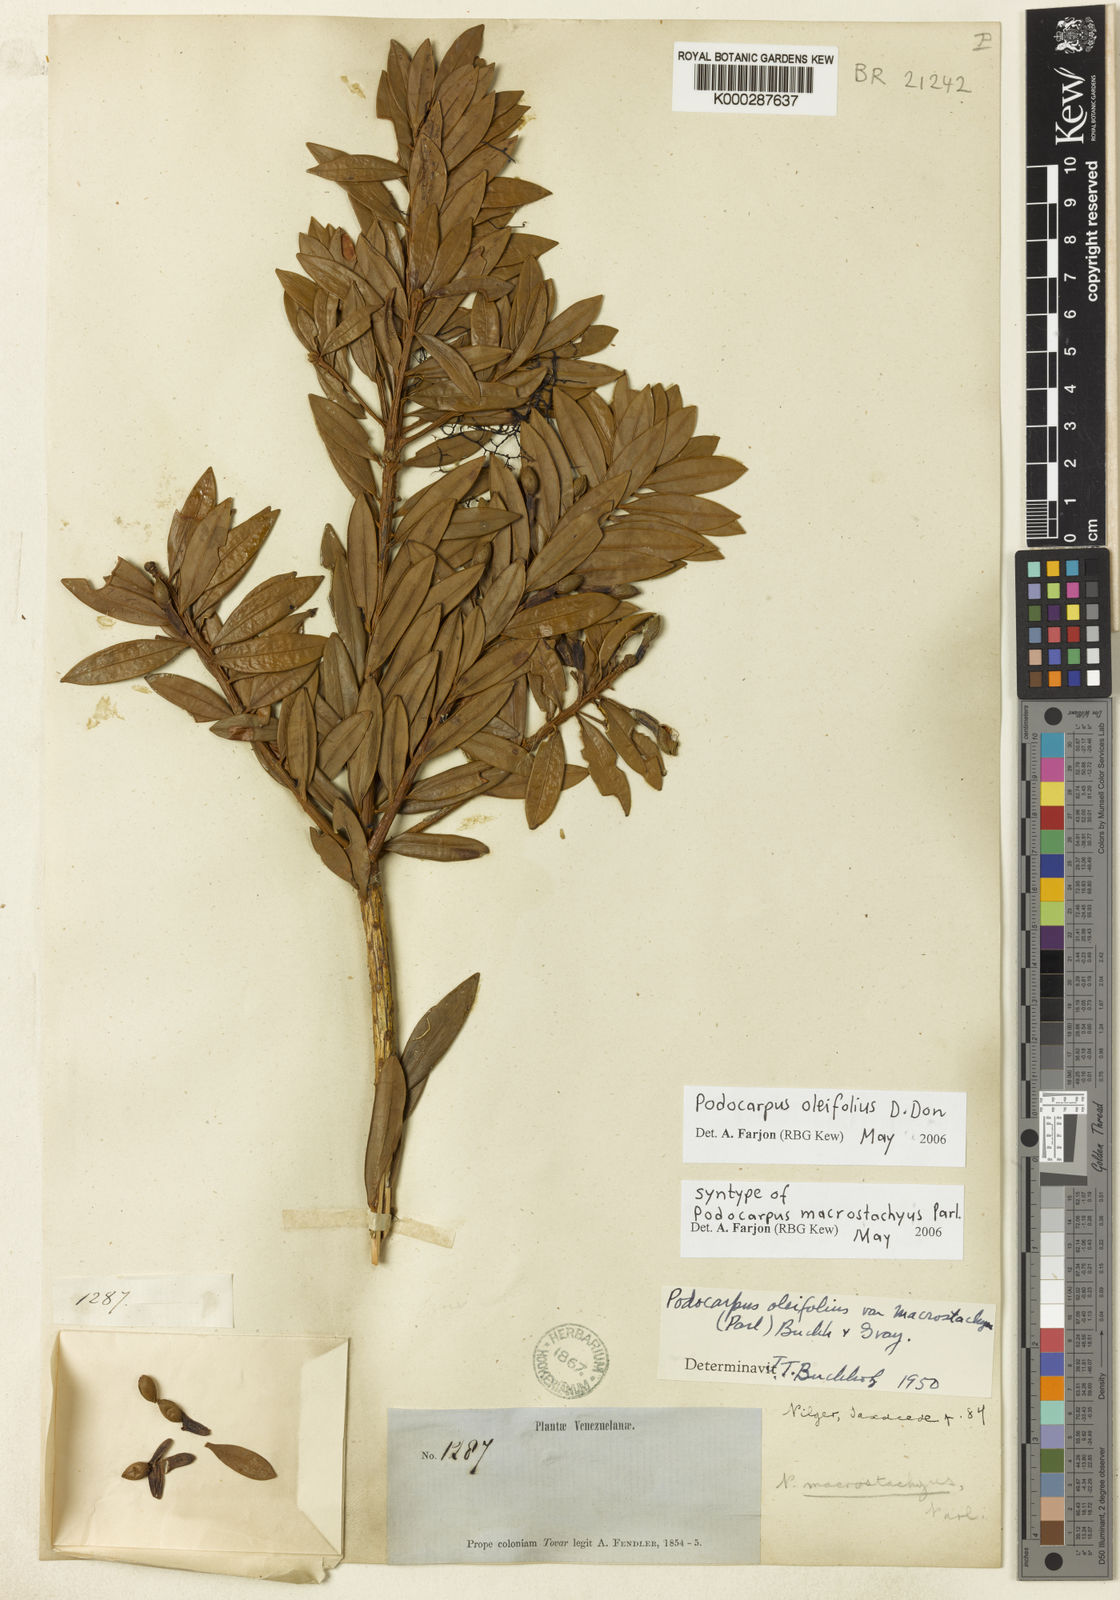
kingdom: Plantae
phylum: Tracheophyta
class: Pinopsida
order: Pinales
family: Podocarpaceae
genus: Podocarpus
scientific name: Podocarpus oleifolius
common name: Olive-leaf podoberry
